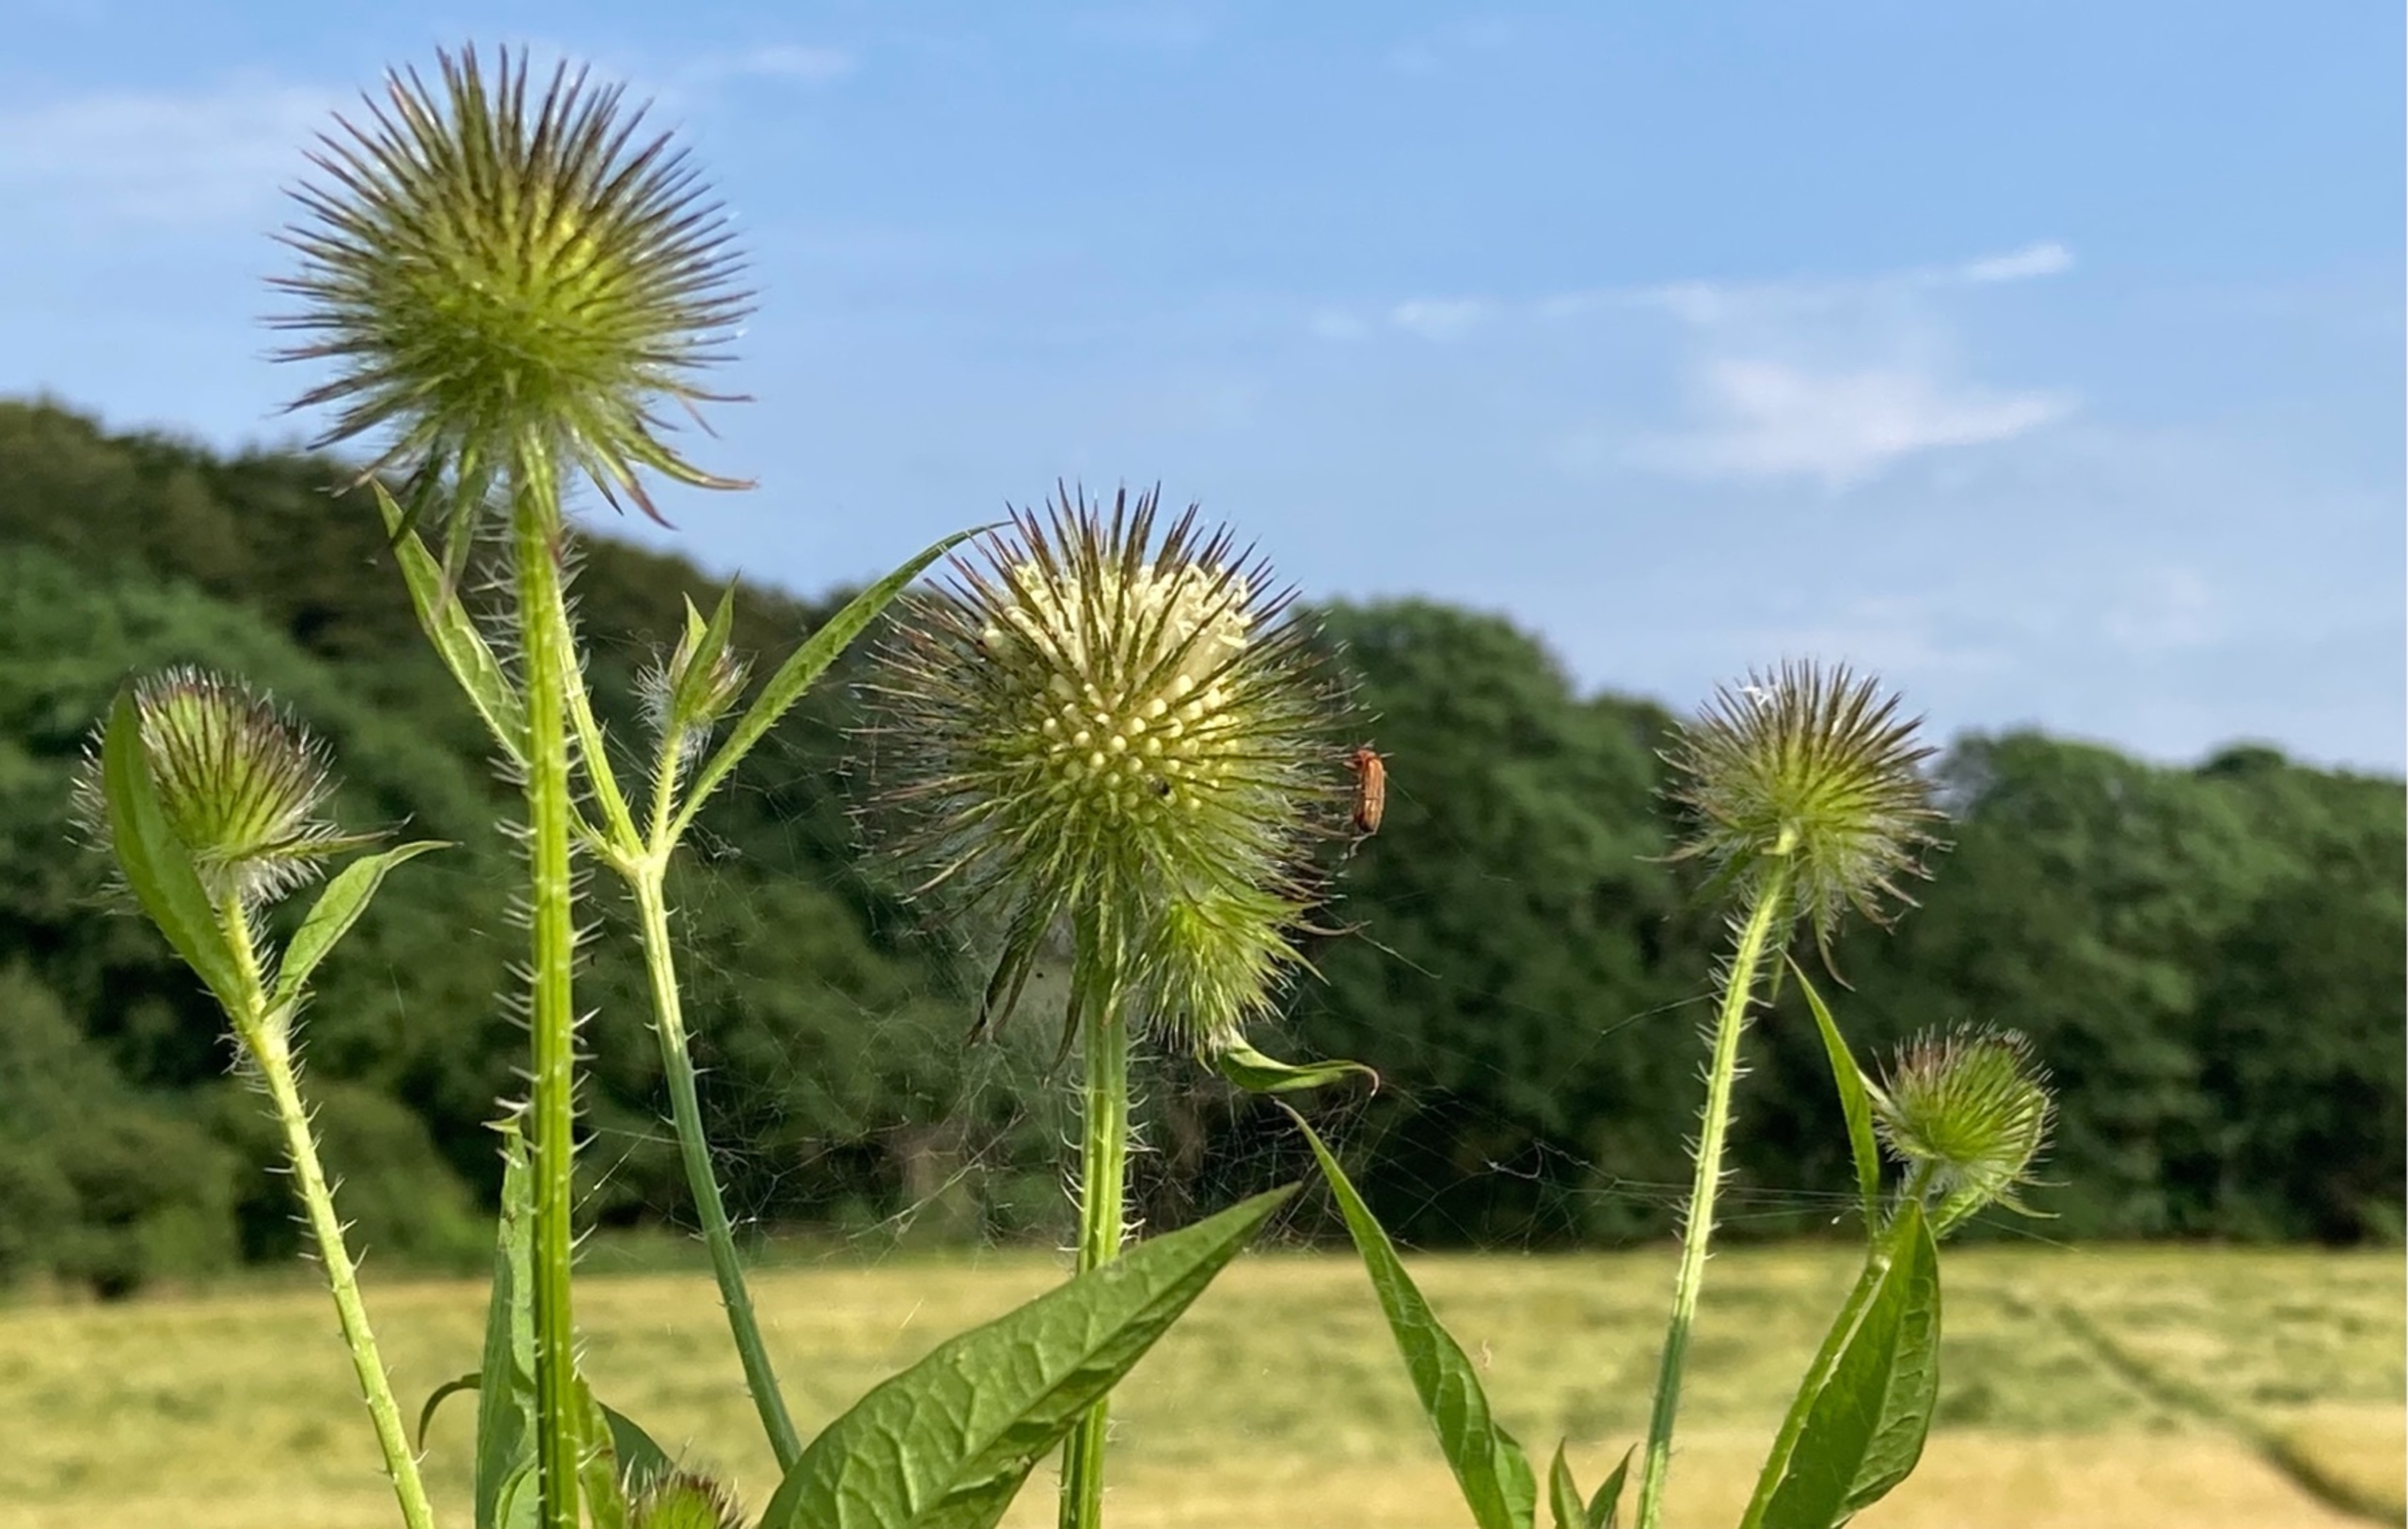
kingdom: Plantae
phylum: Tracheophyta
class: Magnoliopsida
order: Dipsacales
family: Caprifoliaceae
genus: Dipsacus
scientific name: Dipsacus strigosus
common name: Pindsvin-kartebolle
